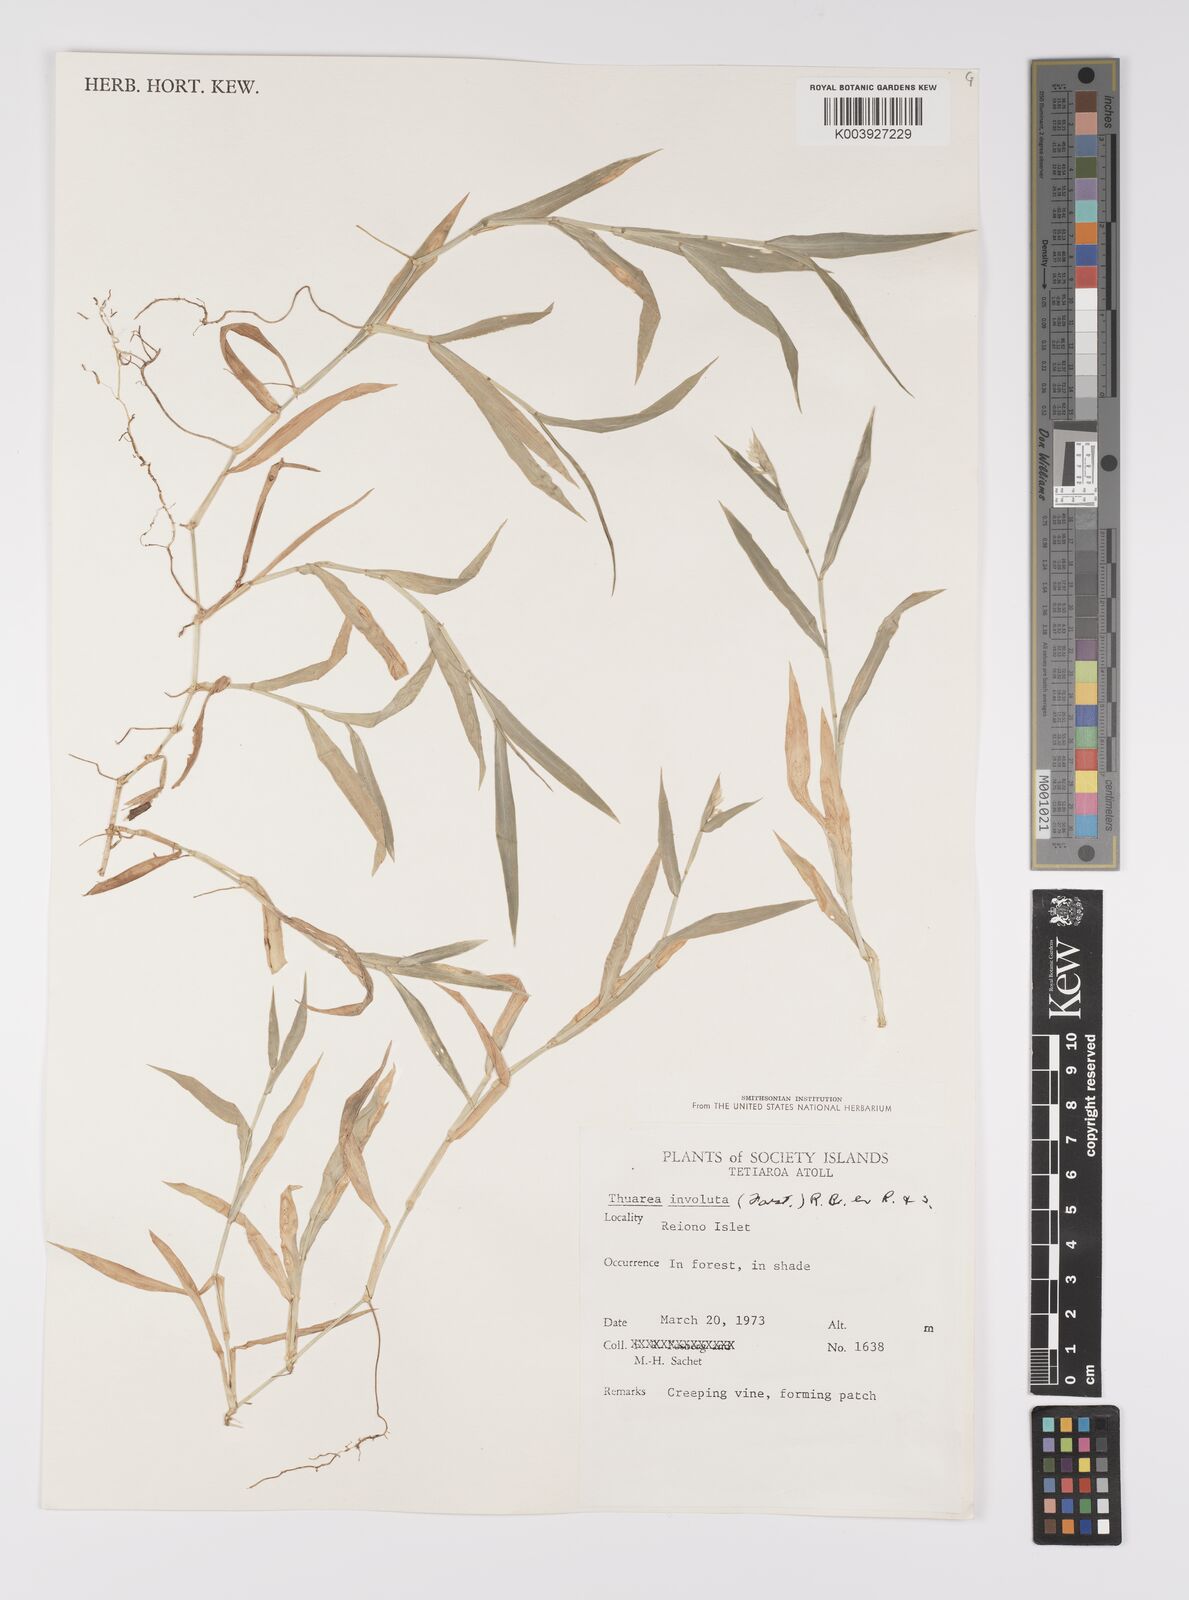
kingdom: Plantae
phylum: Tracheophyta
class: Liliopsida
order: Poales
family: Poaceae
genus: Thuarea
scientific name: Thuarea involuta
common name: Tropical beach grass
